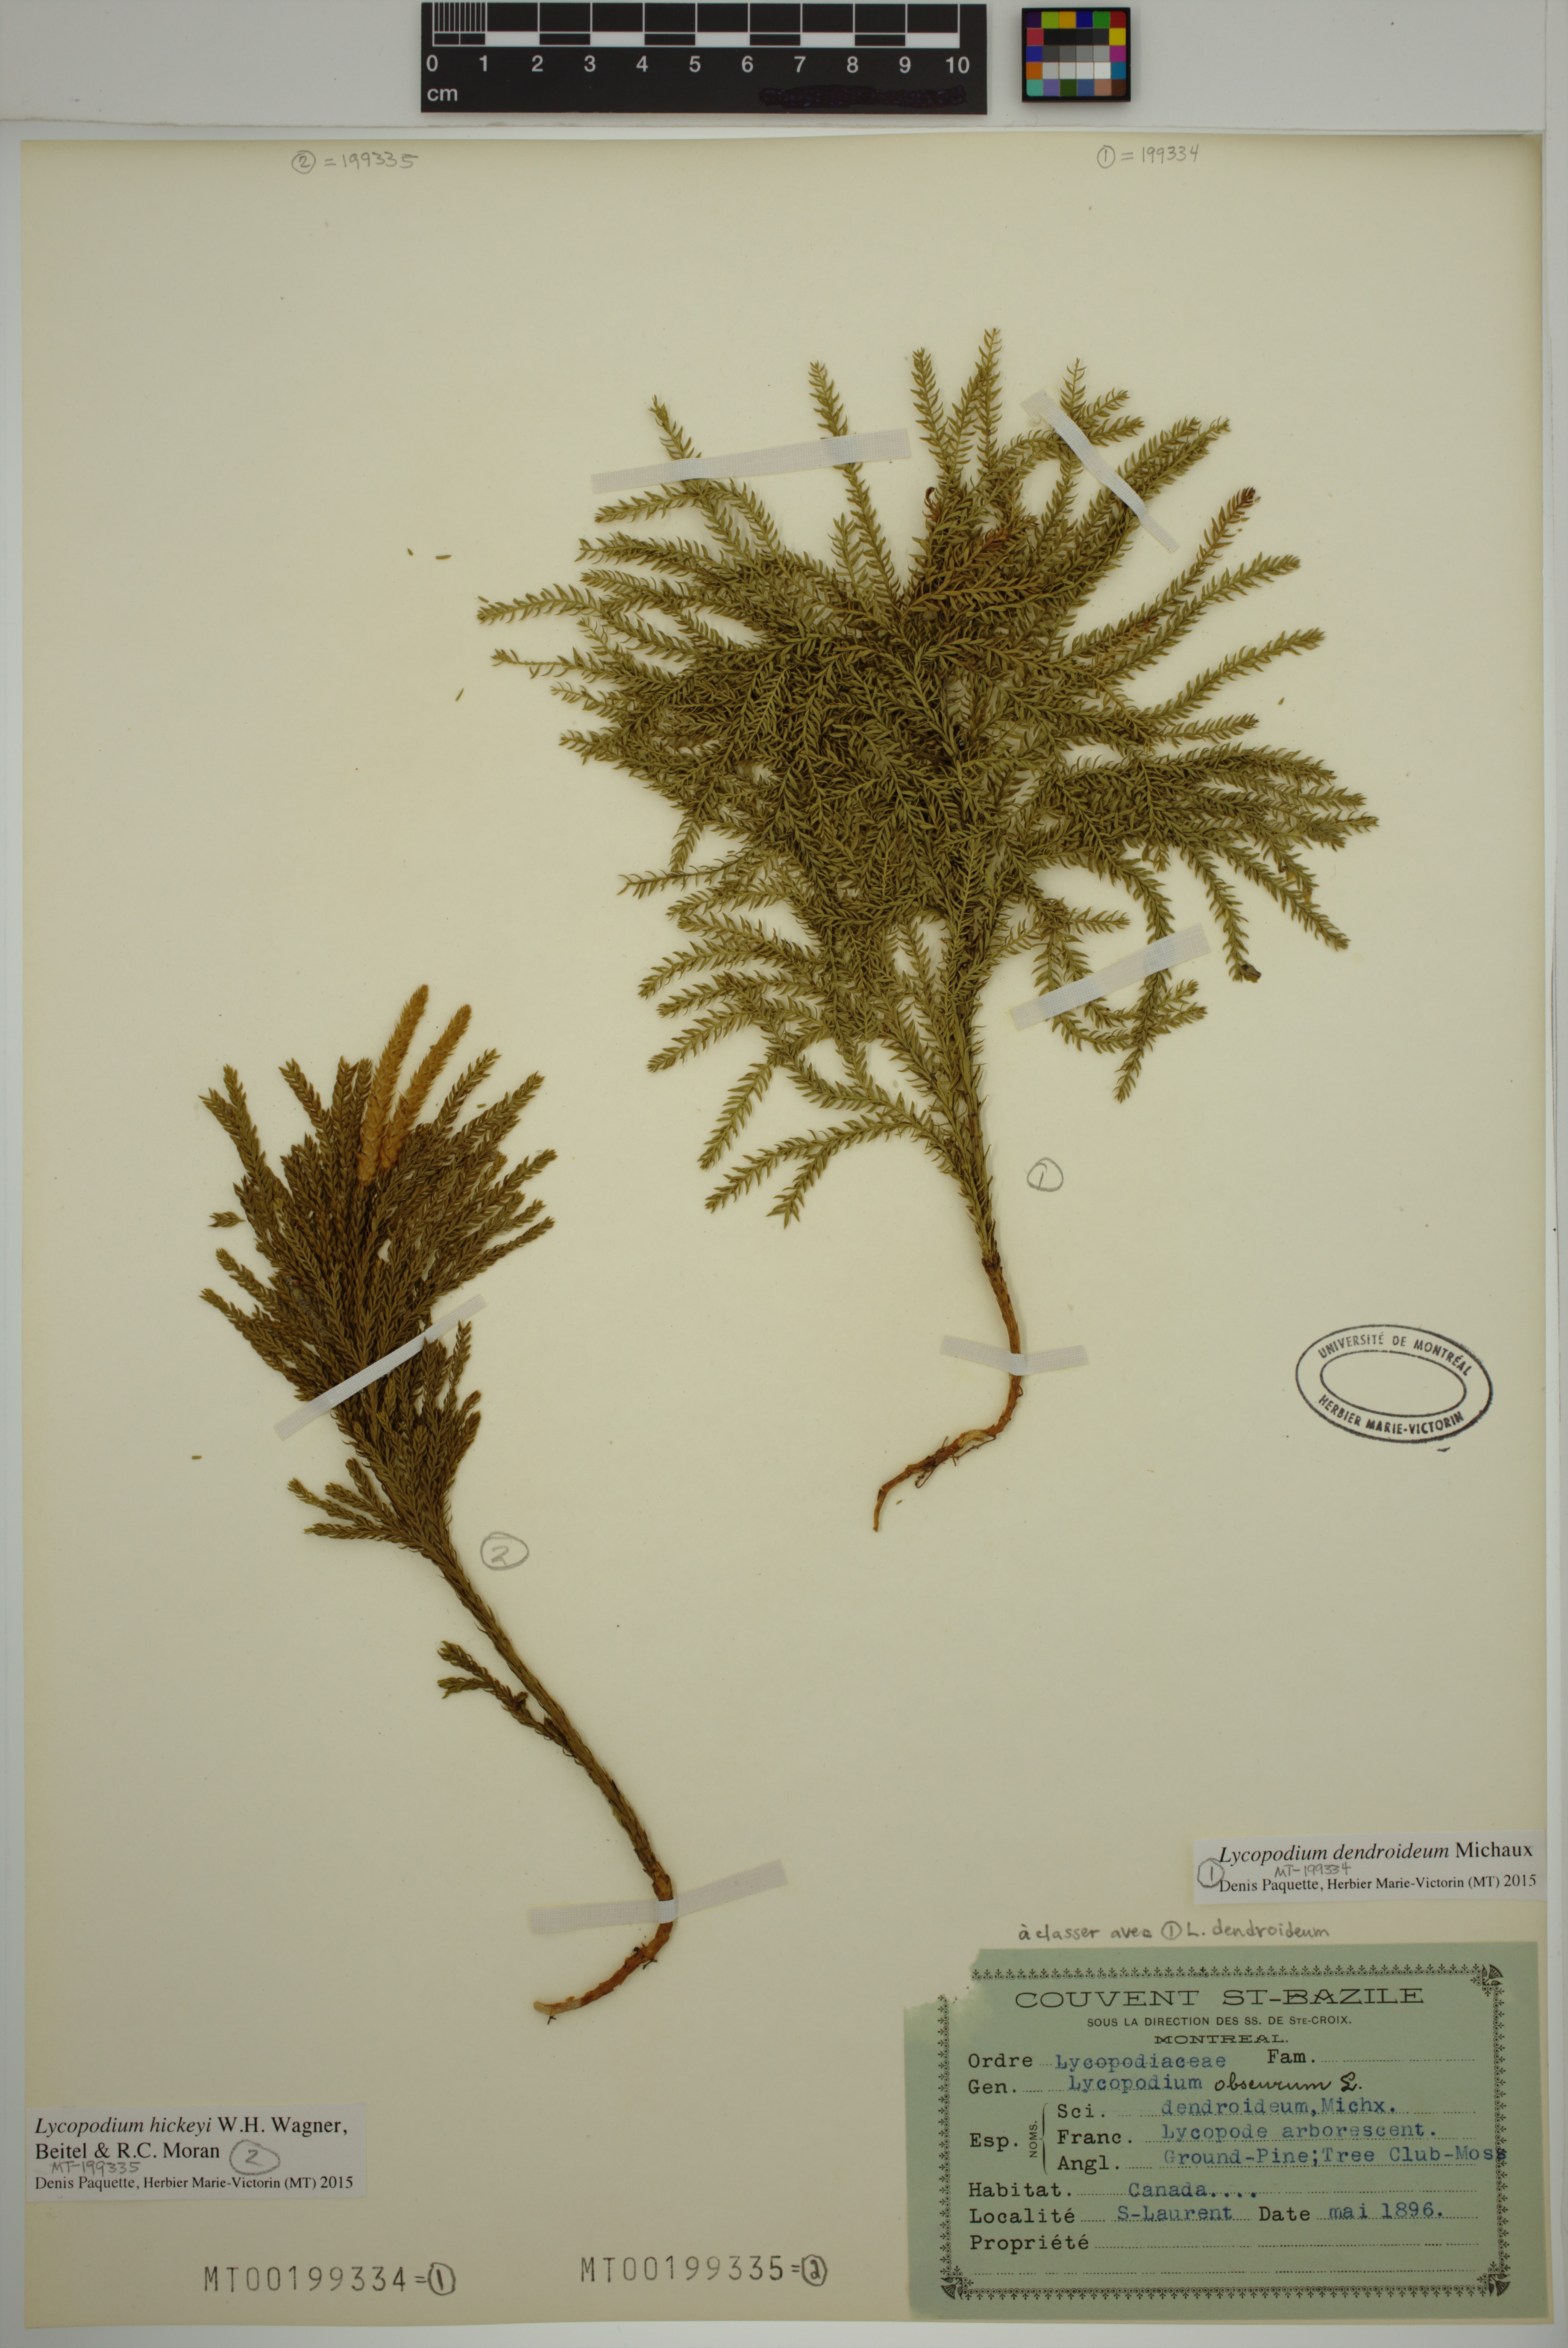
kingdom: Plantae
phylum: Tracheophyta
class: Lycopodiopsida
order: Lycopodiales
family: Lycopodiaceae
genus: Dendrolycopodium
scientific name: Dendrolycopodium dendroideum
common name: Northern tree-clubmoss
